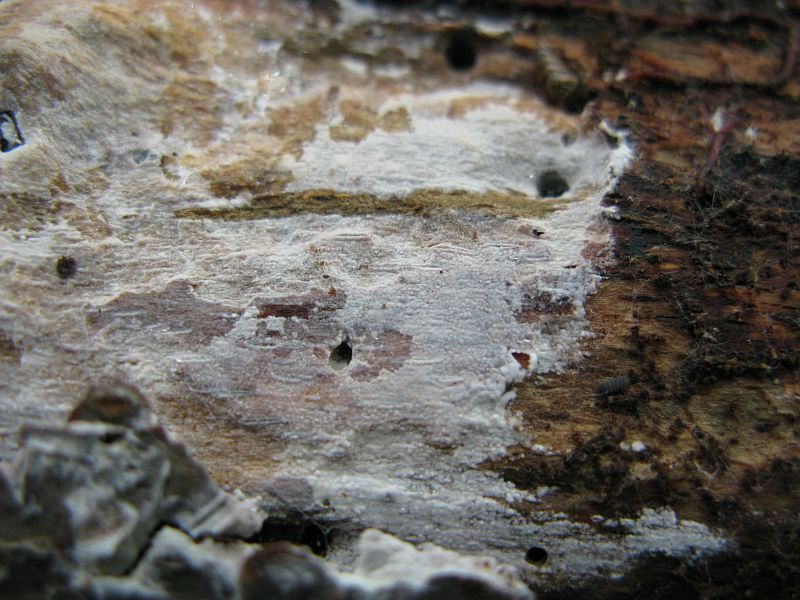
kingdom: Fungi
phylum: Basidiomycota
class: Agaricomycetes
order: Polyporales
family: Hyphodermataceae
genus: Hyphoderma
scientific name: Hyphoderma roseocremeum
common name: lillaplettet kalkskind
